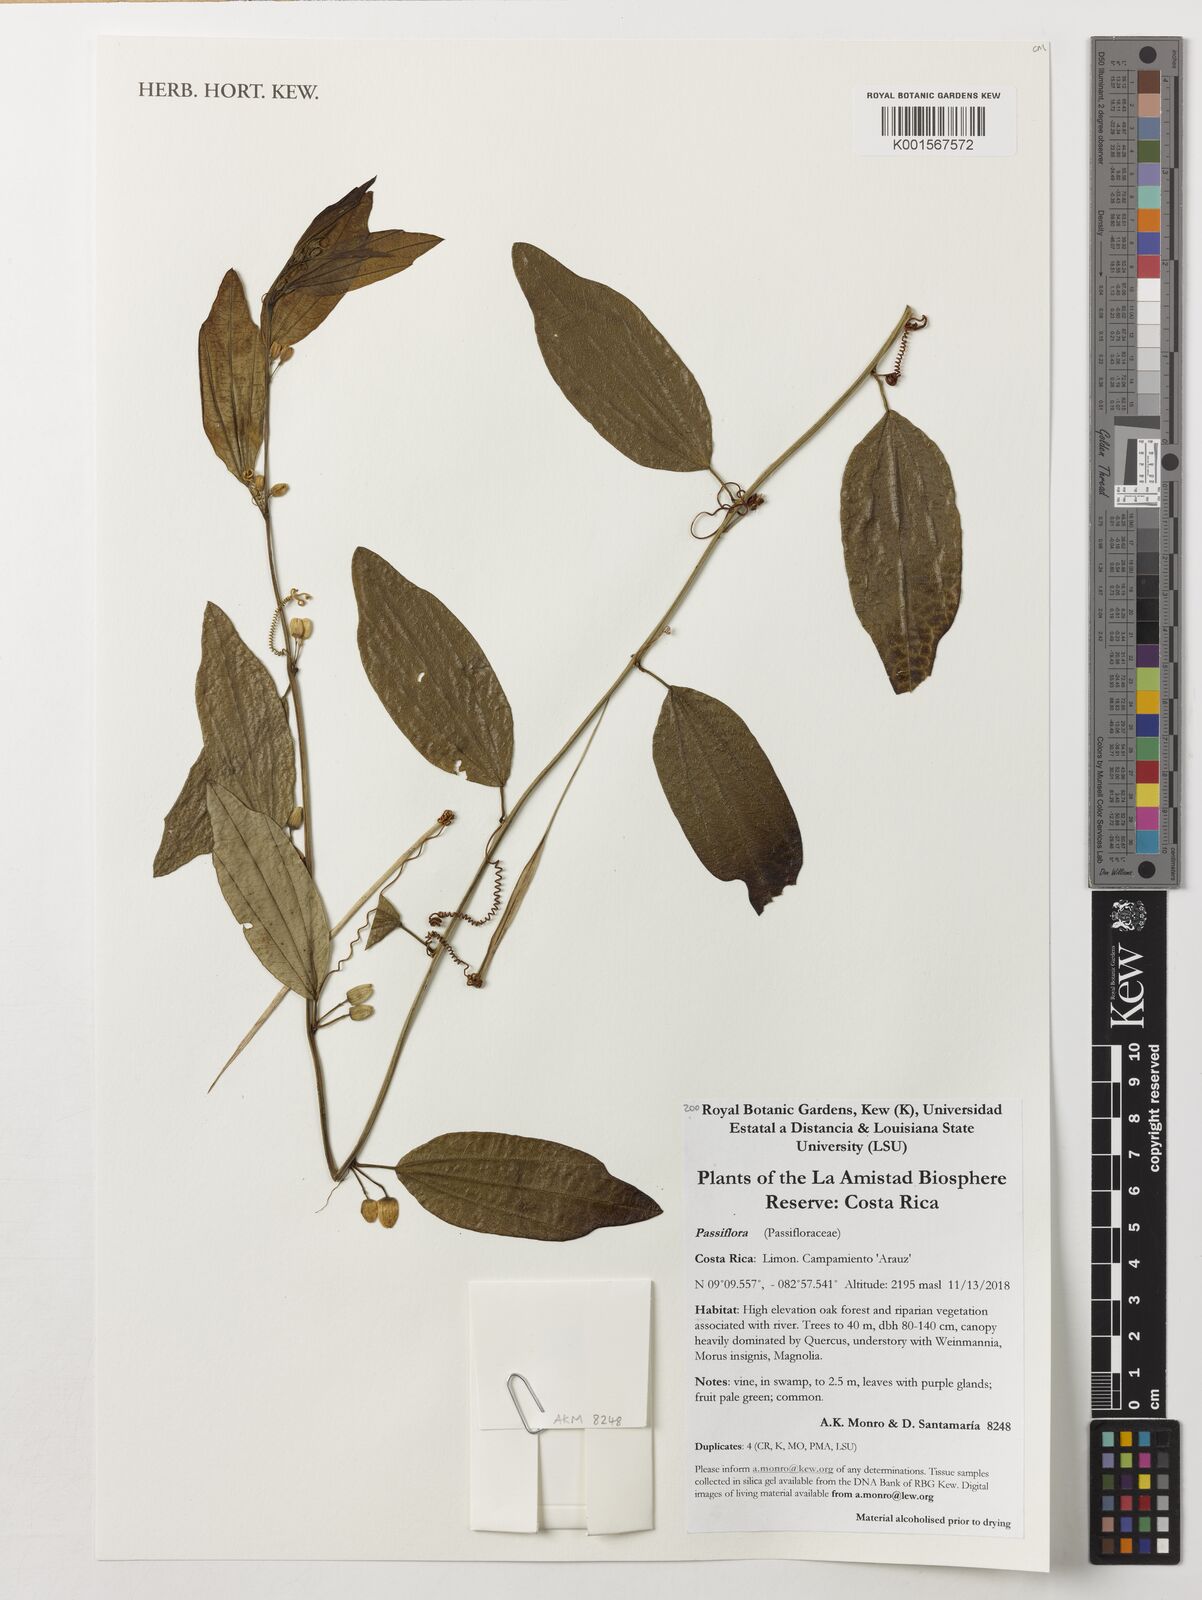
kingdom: Plantae
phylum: Tracheophyta
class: Magnoliopsida
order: Malpighiales
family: Passifloraceae
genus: Passiflora
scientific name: Passiflora
